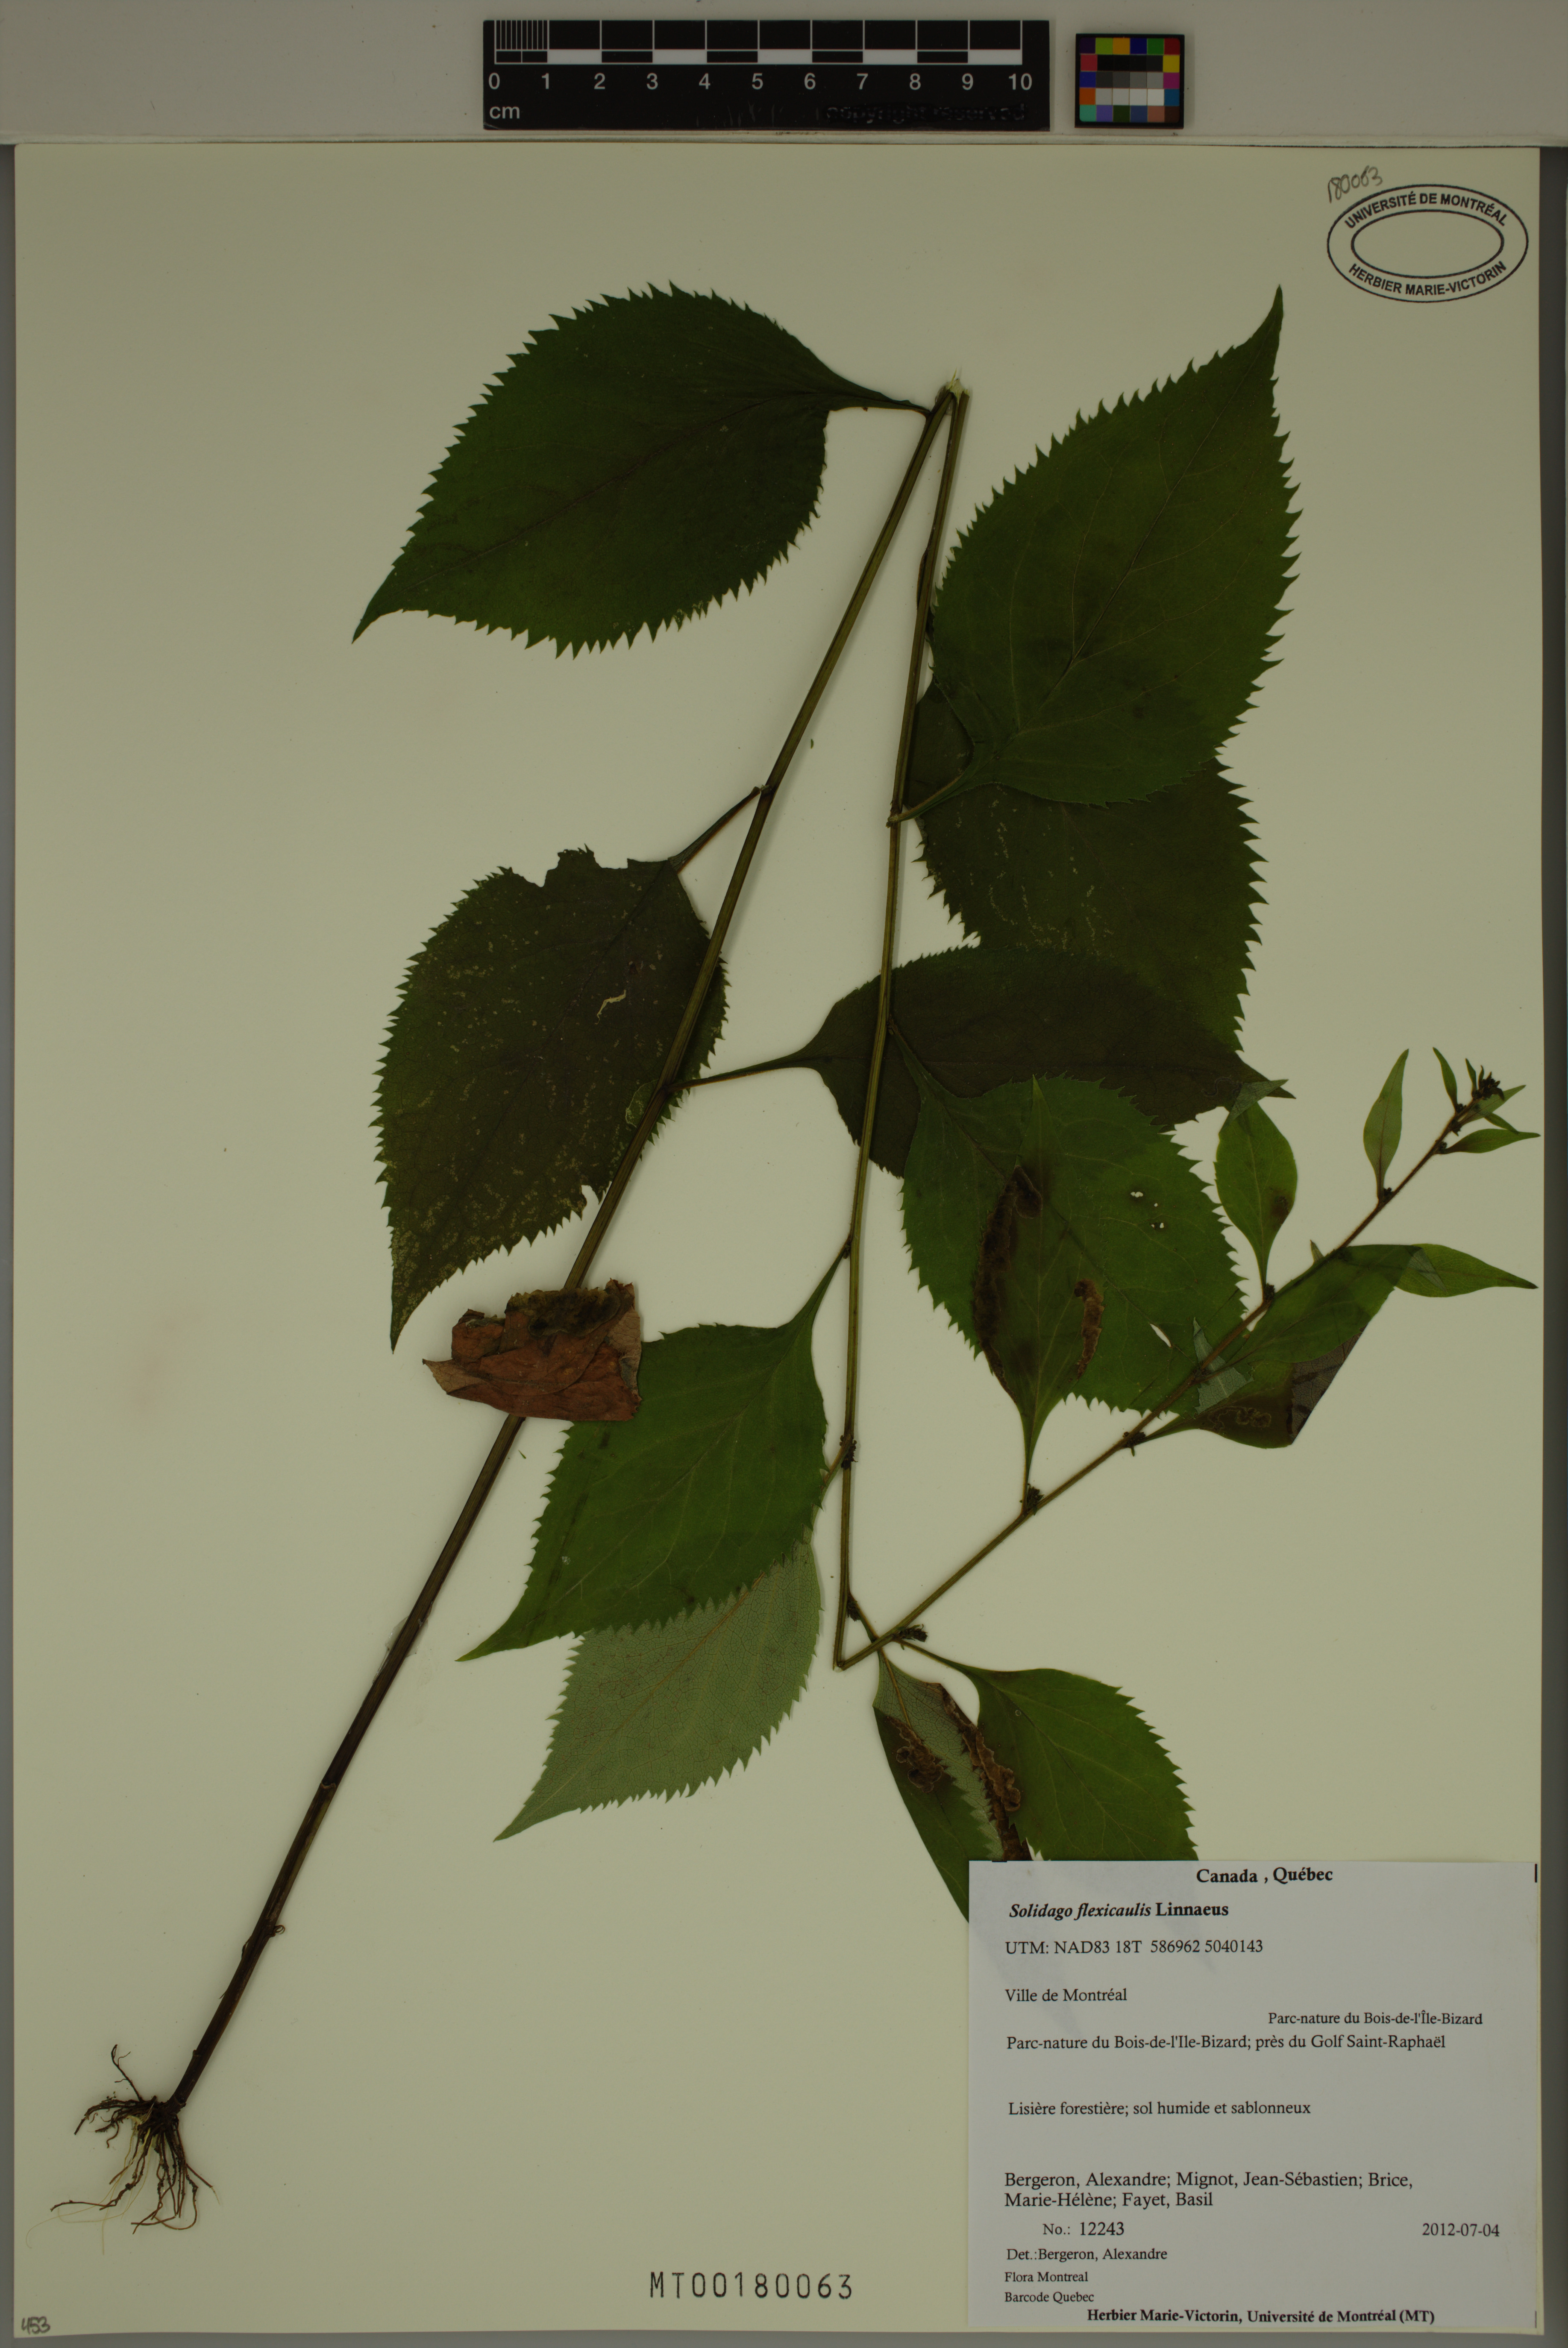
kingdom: Plantae
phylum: Tracheophyta
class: Magnoliopsida
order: Asterales
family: Asteraceae
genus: Solidago
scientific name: Solidago flexicaulis
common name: Zig-zag goldenrod
